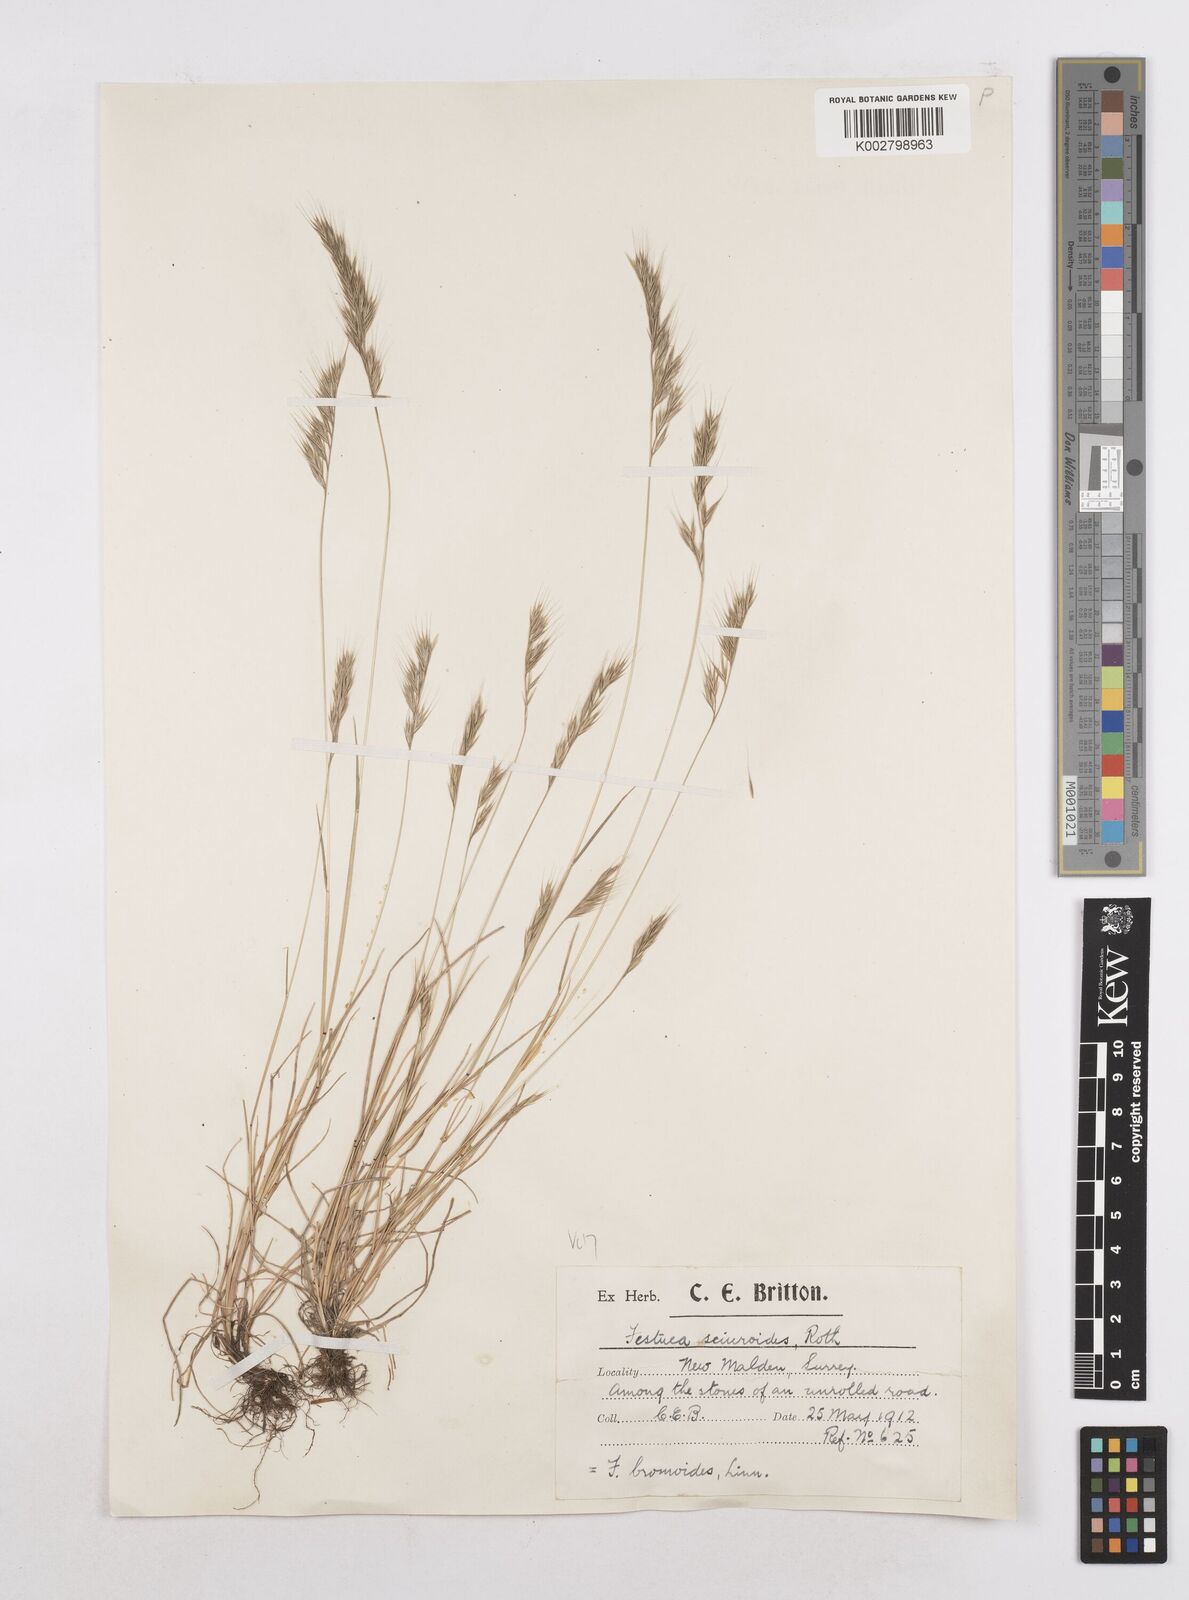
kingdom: Plantae
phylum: Tracheophyta
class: Liliopsida
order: Poales
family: Poaceae
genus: Festuca
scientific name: Festuca bromoides
